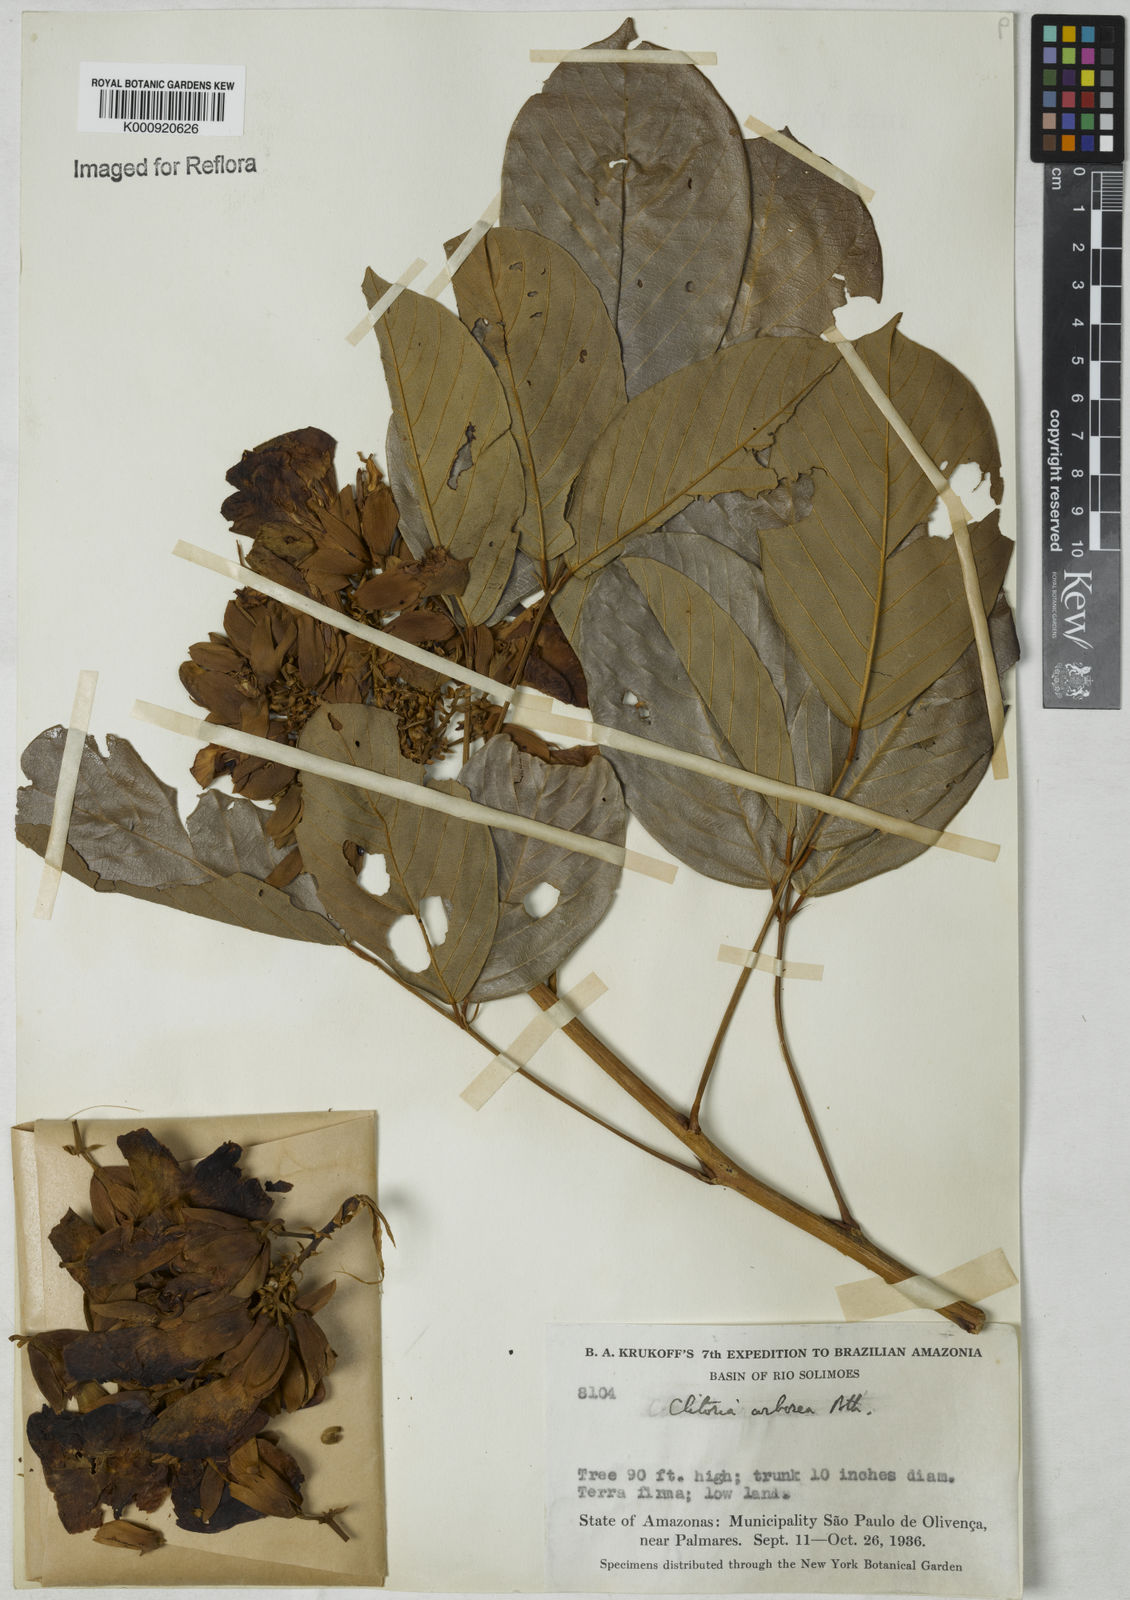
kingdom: Plantae
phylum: Tracheophyta
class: Magnoliopsida
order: Fabales
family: Fabaceae
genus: Clitoria
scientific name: Clitoria arborescens
